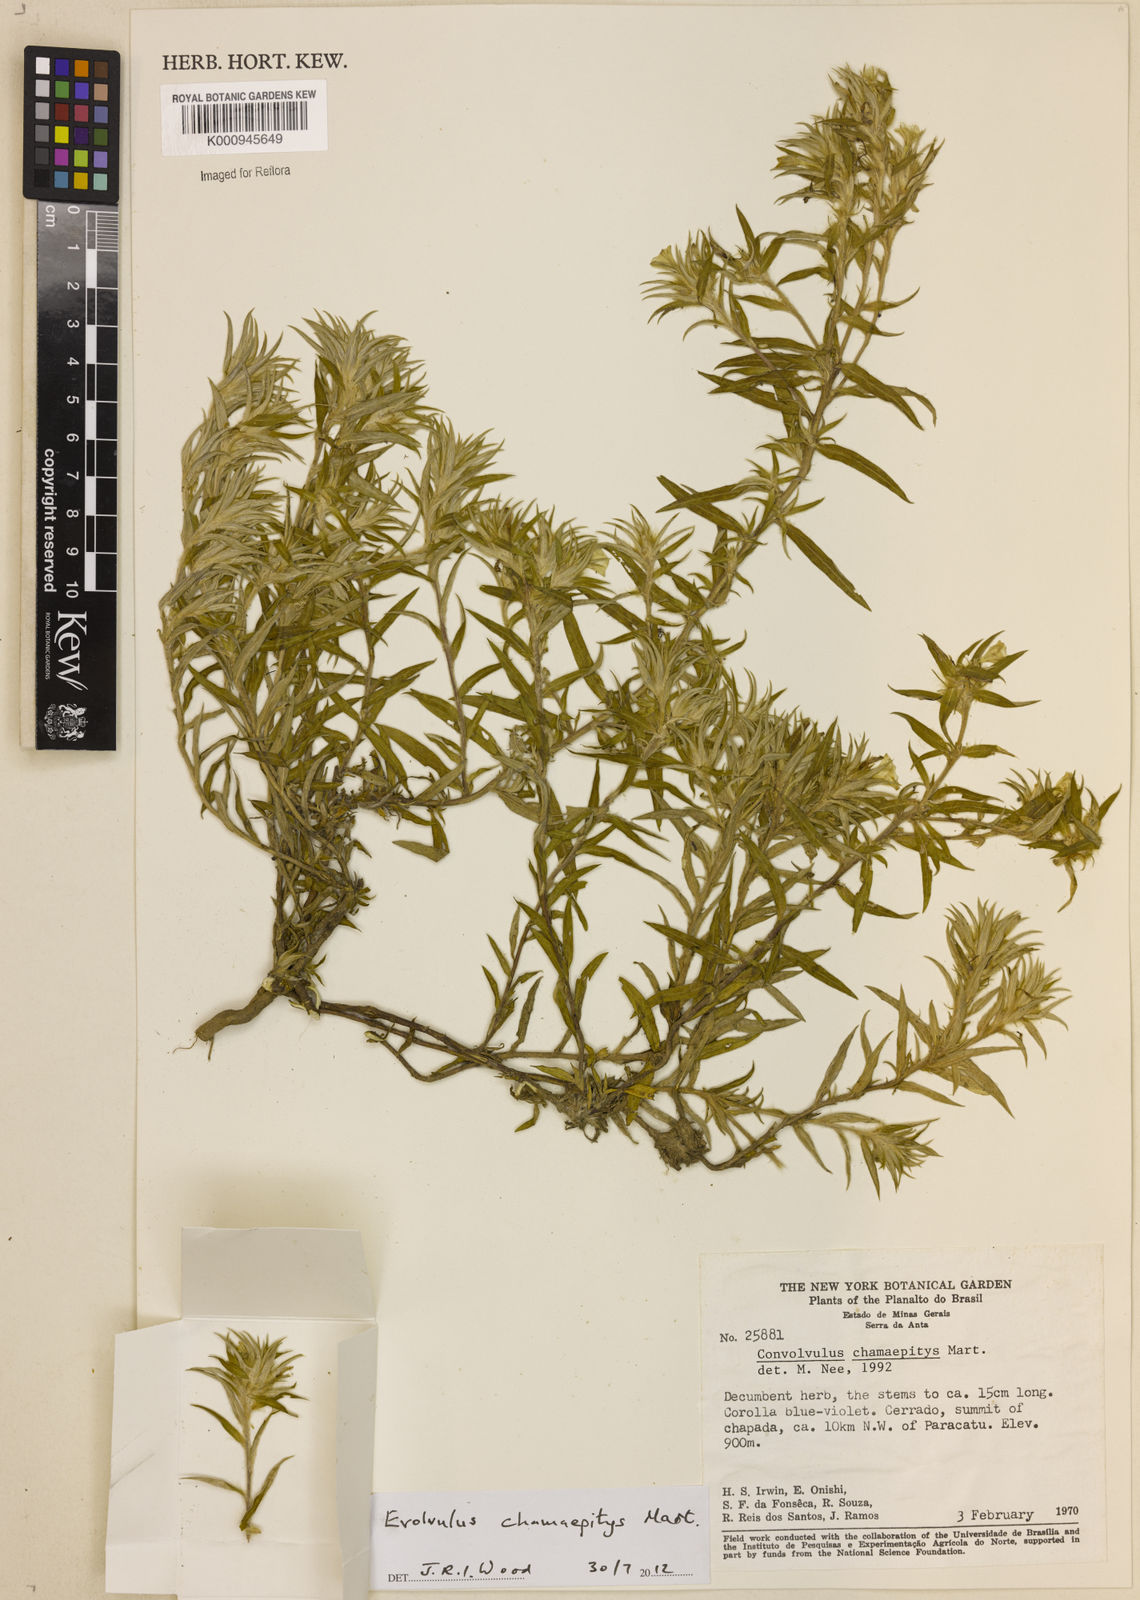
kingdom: Plantae
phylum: Tracheophyta
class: Magnoliopsida
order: Solanales
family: Convolvulaceae
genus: Evolvulus
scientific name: Evolvulus chamaepitys
